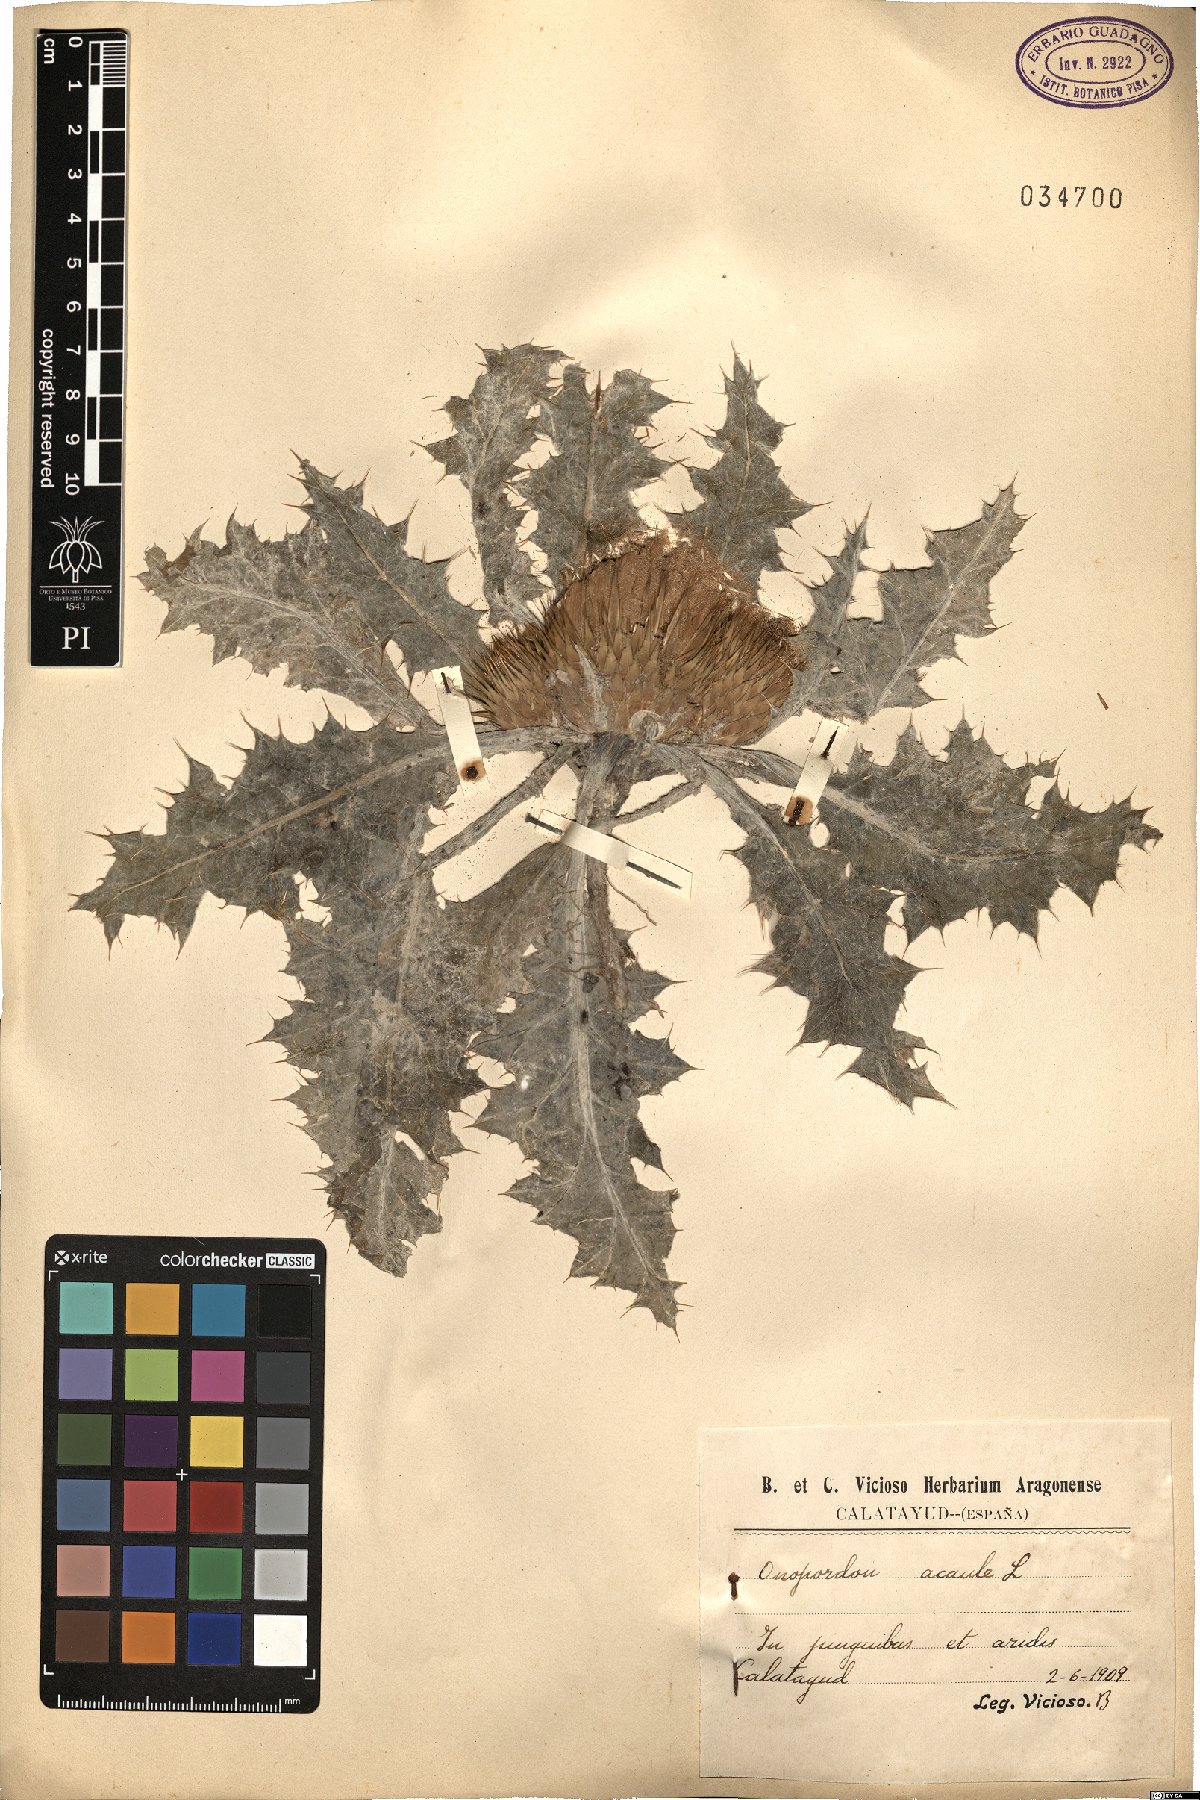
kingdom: Plantae
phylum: Tracheophyta
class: Magnoliopsida
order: Asterales
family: Asteraceae
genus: Onopordum
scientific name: Onopordum acaulon
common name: Horse thistle
